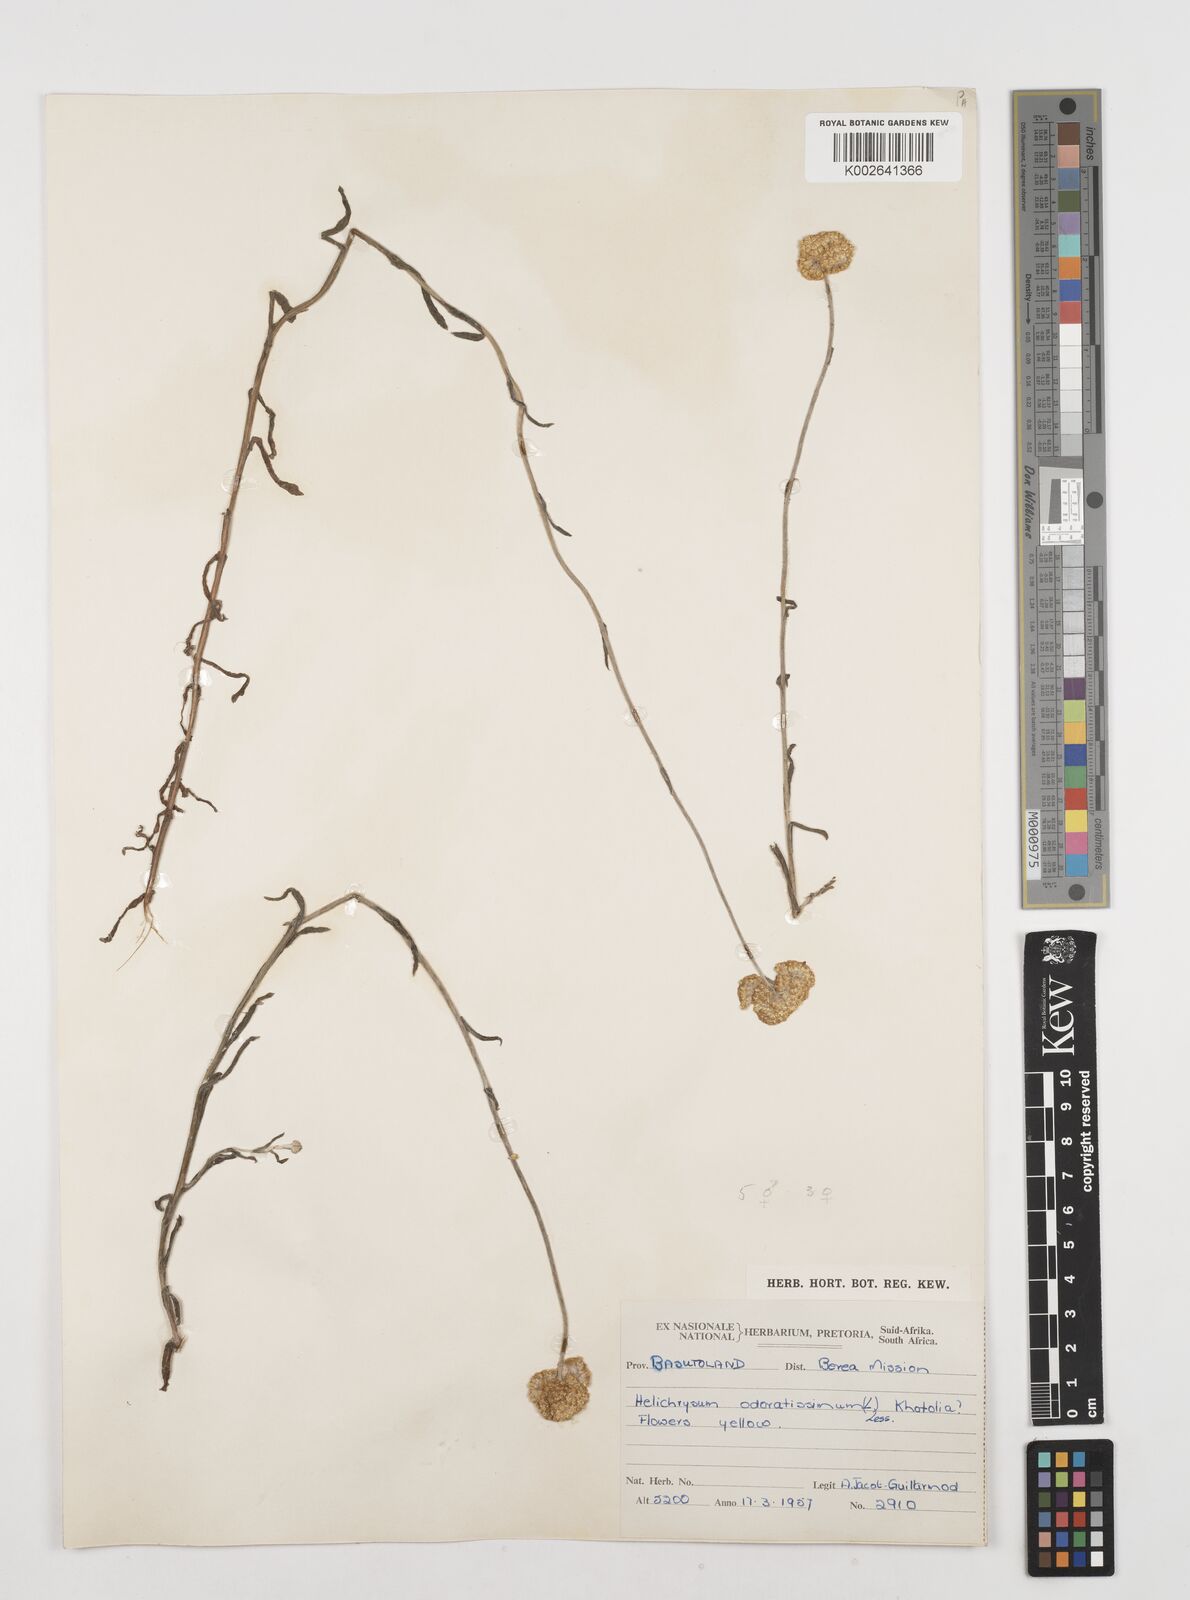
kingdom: Plantae
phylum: Tracheophyta
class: Magnoliopsida
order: Asterales
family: Asteraceae
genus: Helichrysum
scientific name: Helichrysum odoratissimum
